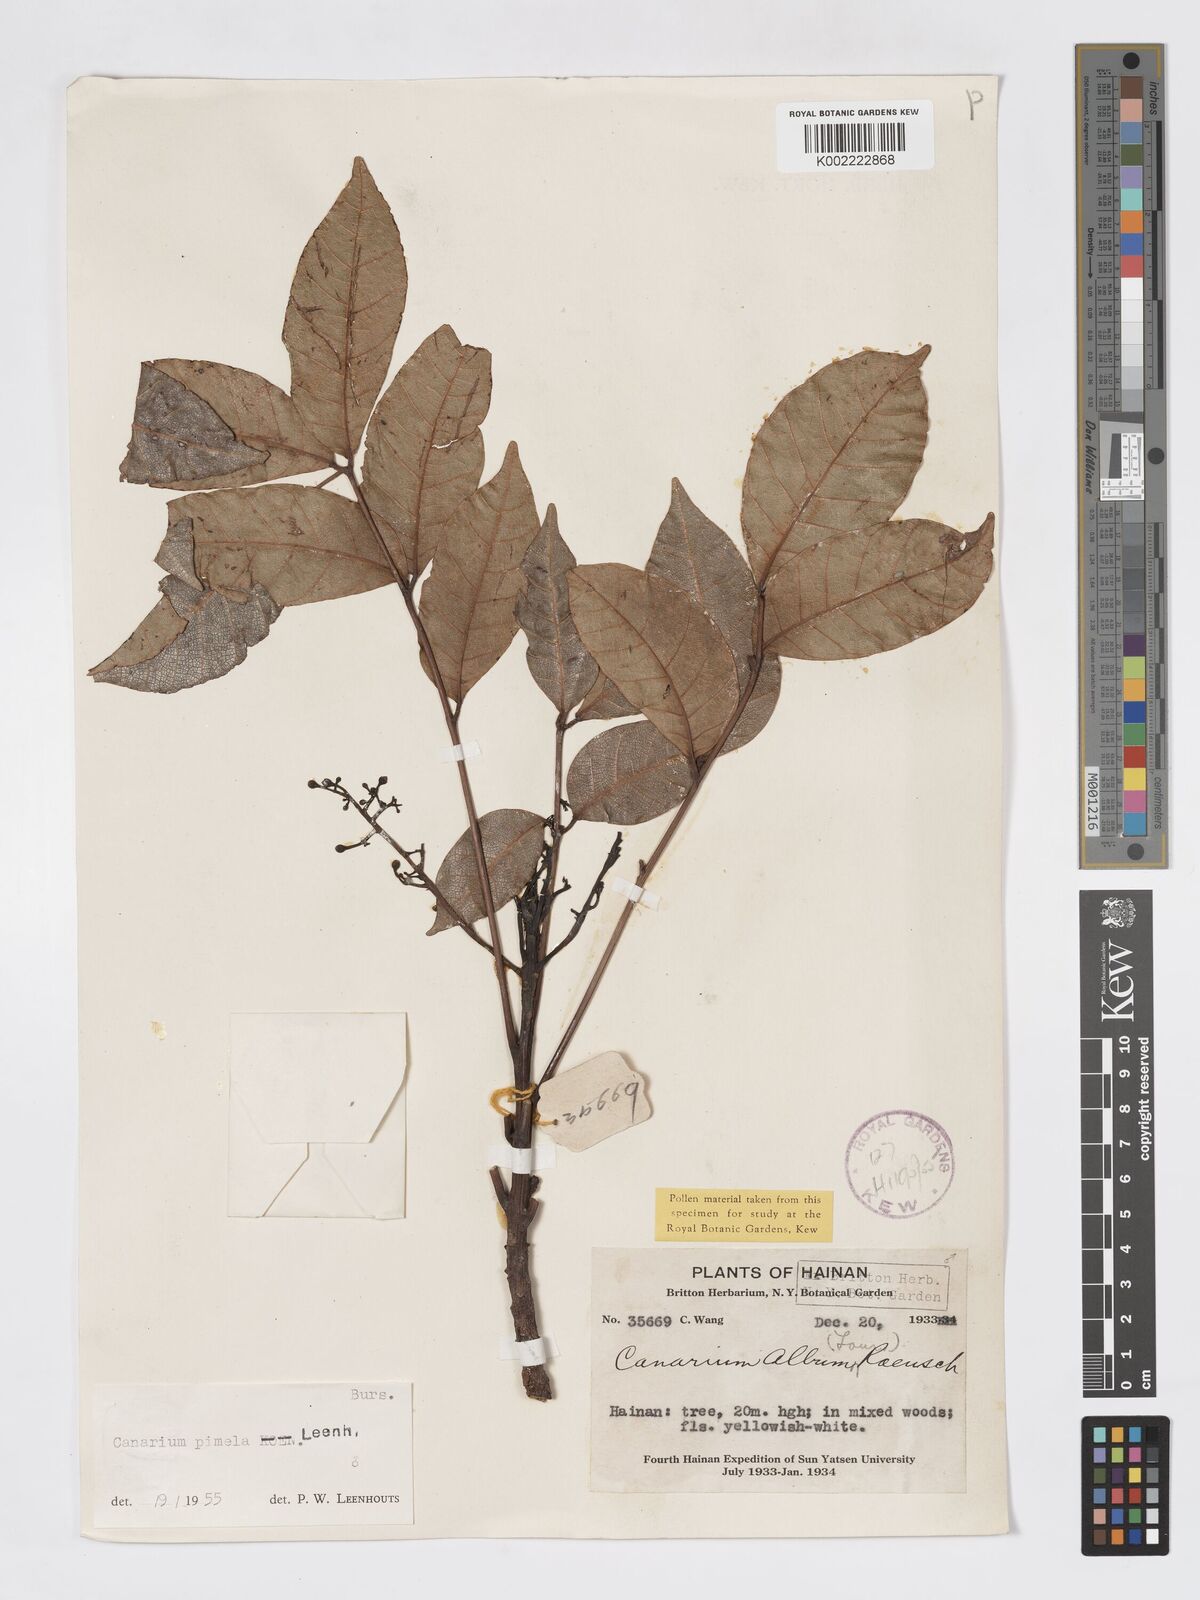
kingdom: Plantae
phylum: Tracheophyta
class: Magnoliopsida
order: Sapindales
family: Burseraceae
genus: Canarium
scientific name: Canarium
